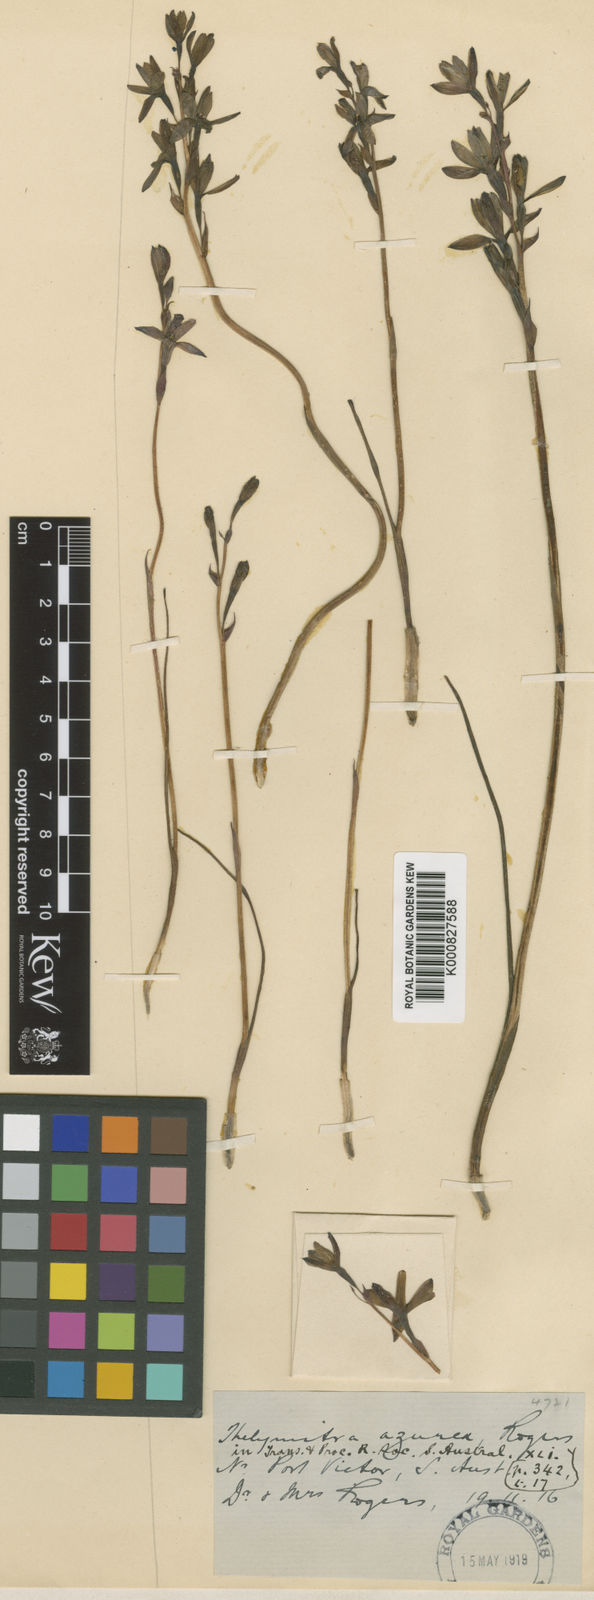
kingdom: Plantae
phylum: Tracheophyta
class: Liliopsida
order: Asparagales
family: Orchidaceae
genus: Thelymitra
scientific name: Thelymitra canaliculata
